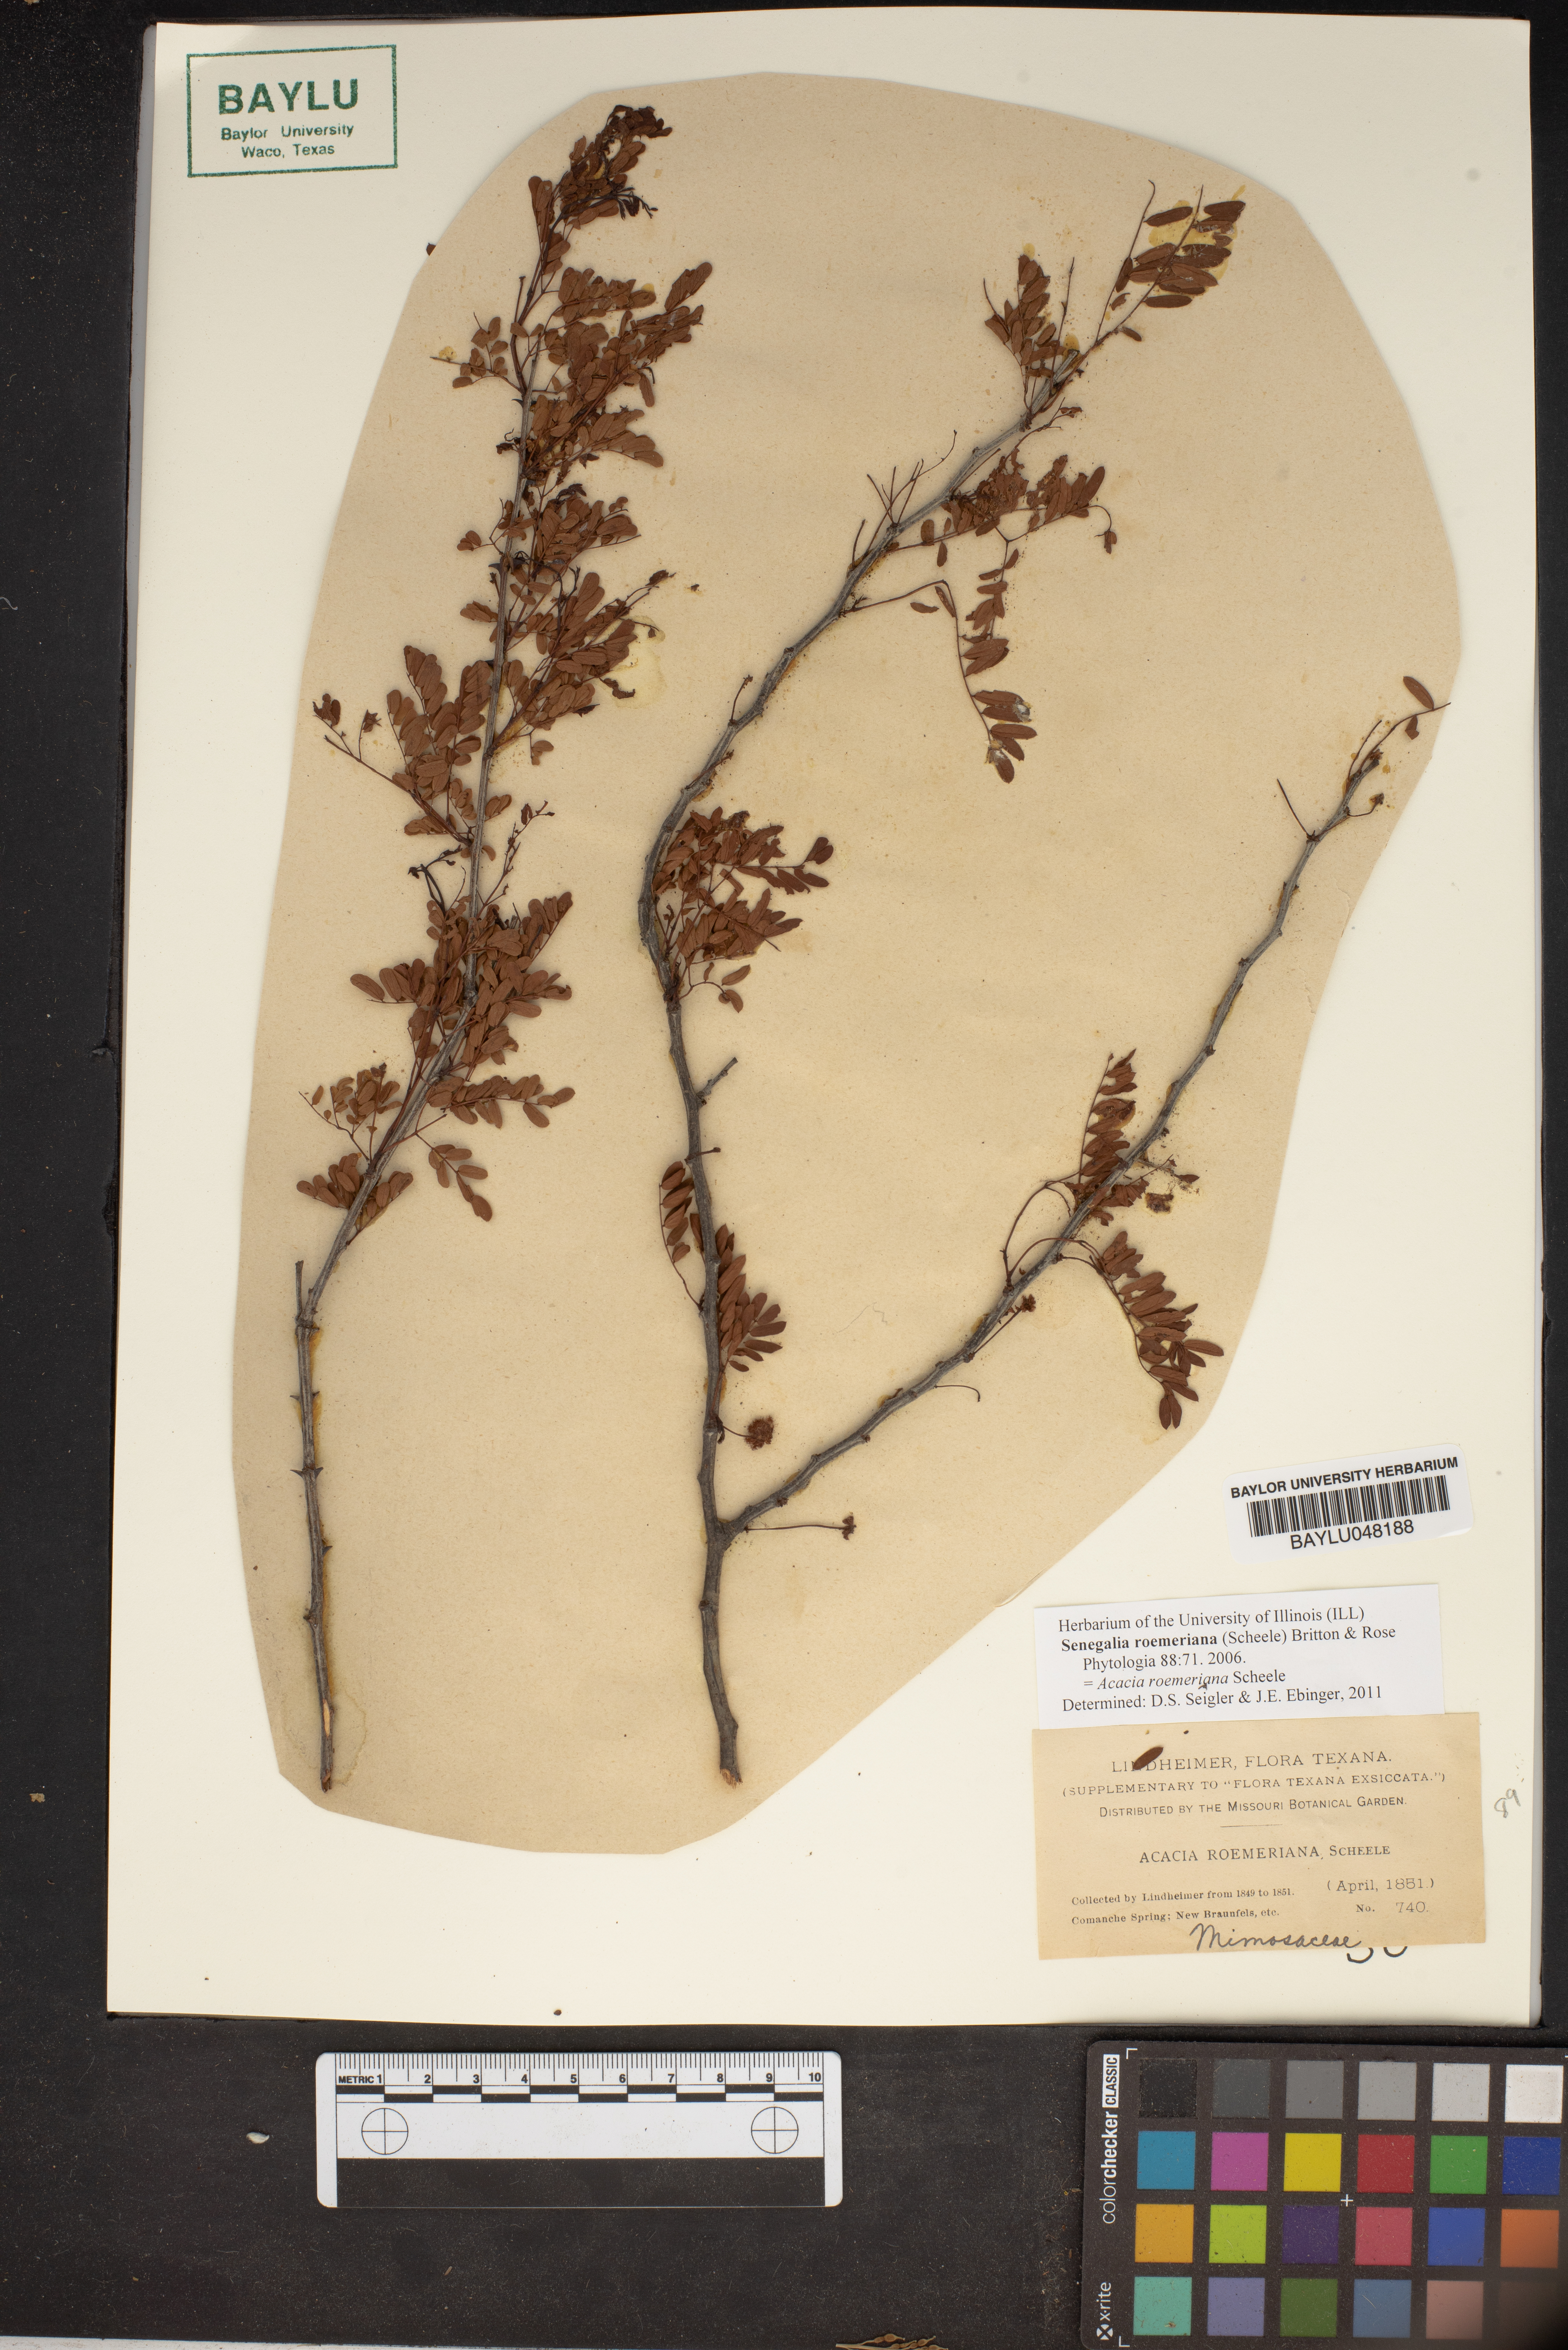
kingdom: Plantae
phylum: Tracheophyta
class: Magnoliopsida
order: Fabales
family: Fabaceae
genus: Senegalia
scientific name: Senegalia roemeriana
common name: Roemer's acacia
